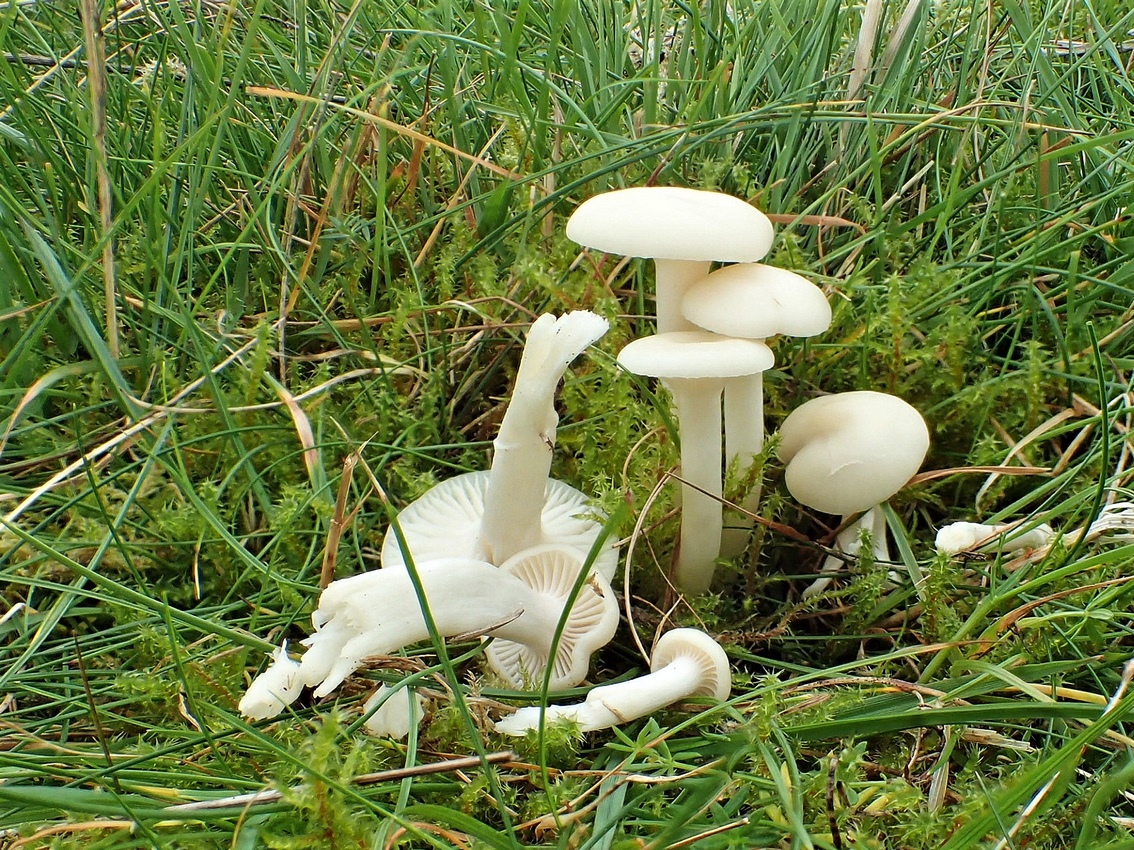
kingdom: Fungi
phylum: Basidiomycota
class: Agaricomycetes
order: Agaricales
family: Hygrophoraceae
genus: Cuphophyllus
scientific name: Cuphophyllus virgineus
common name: snehvid vokshat
